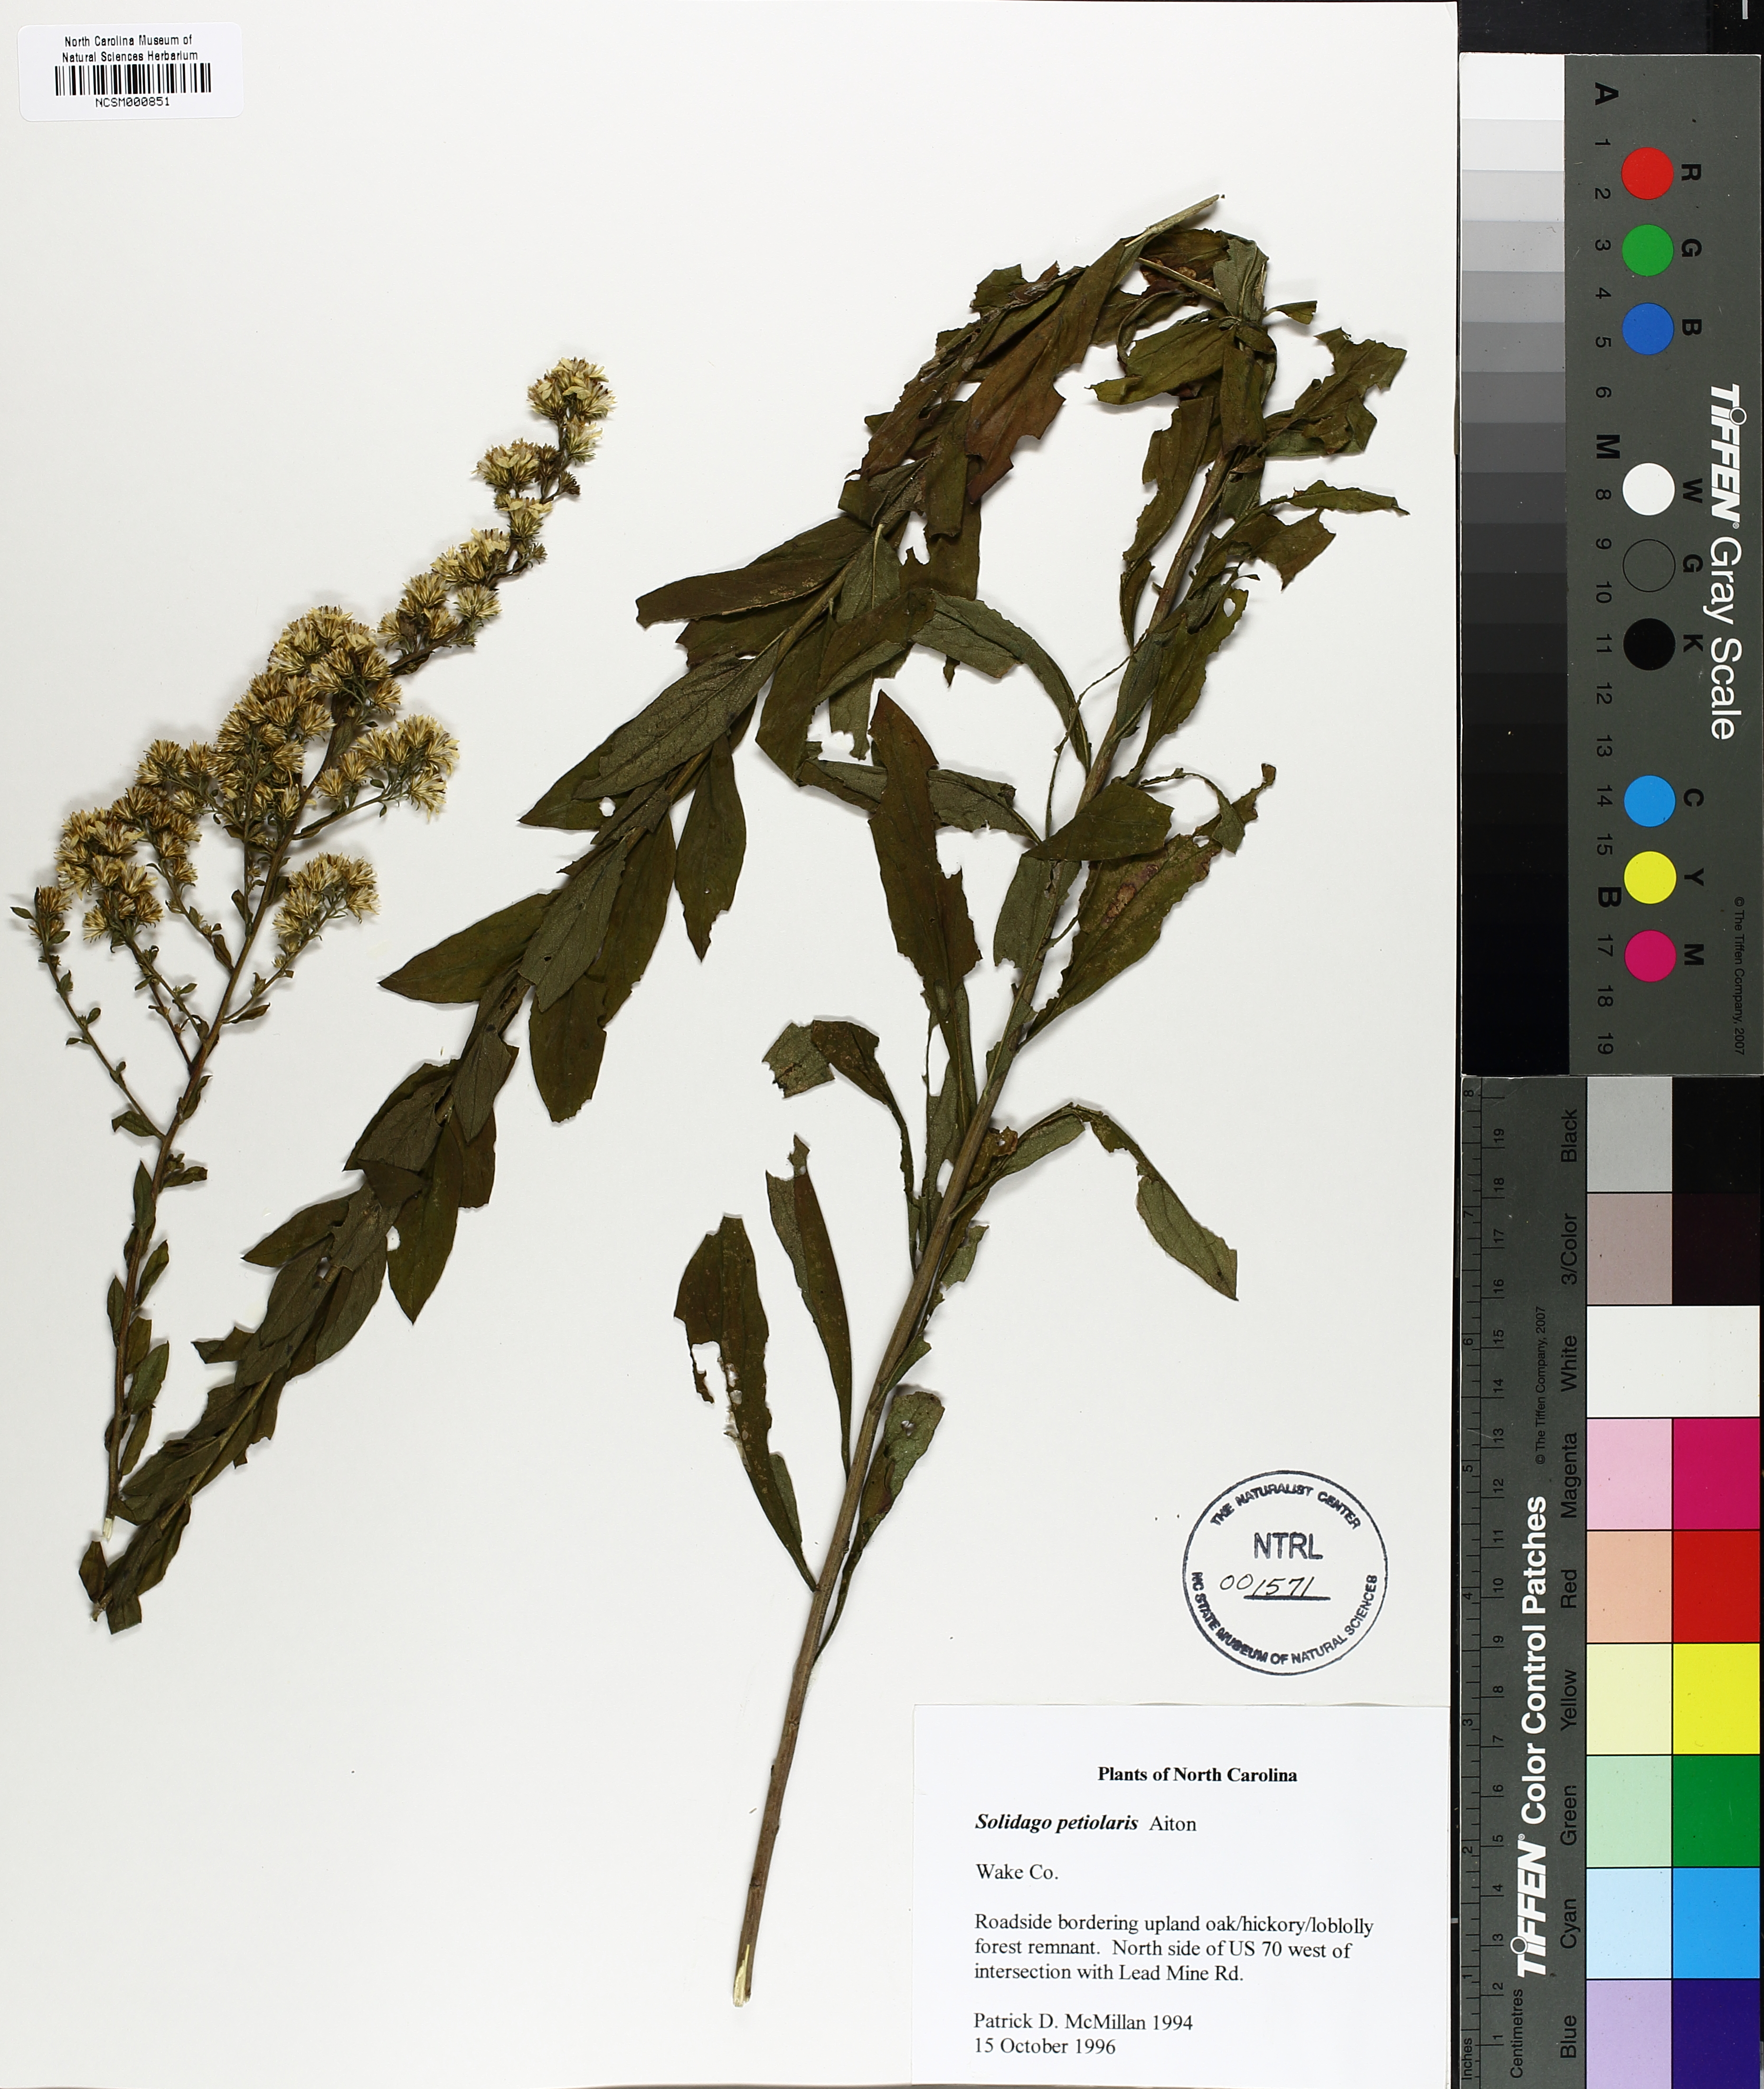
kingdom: Plantae
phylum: Tracheophyta
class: Magnoliopsida
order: Asterales
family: Asteraceae
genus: Solidago
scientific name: Solidago petiolaris
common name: Downy ragged goldenrod
